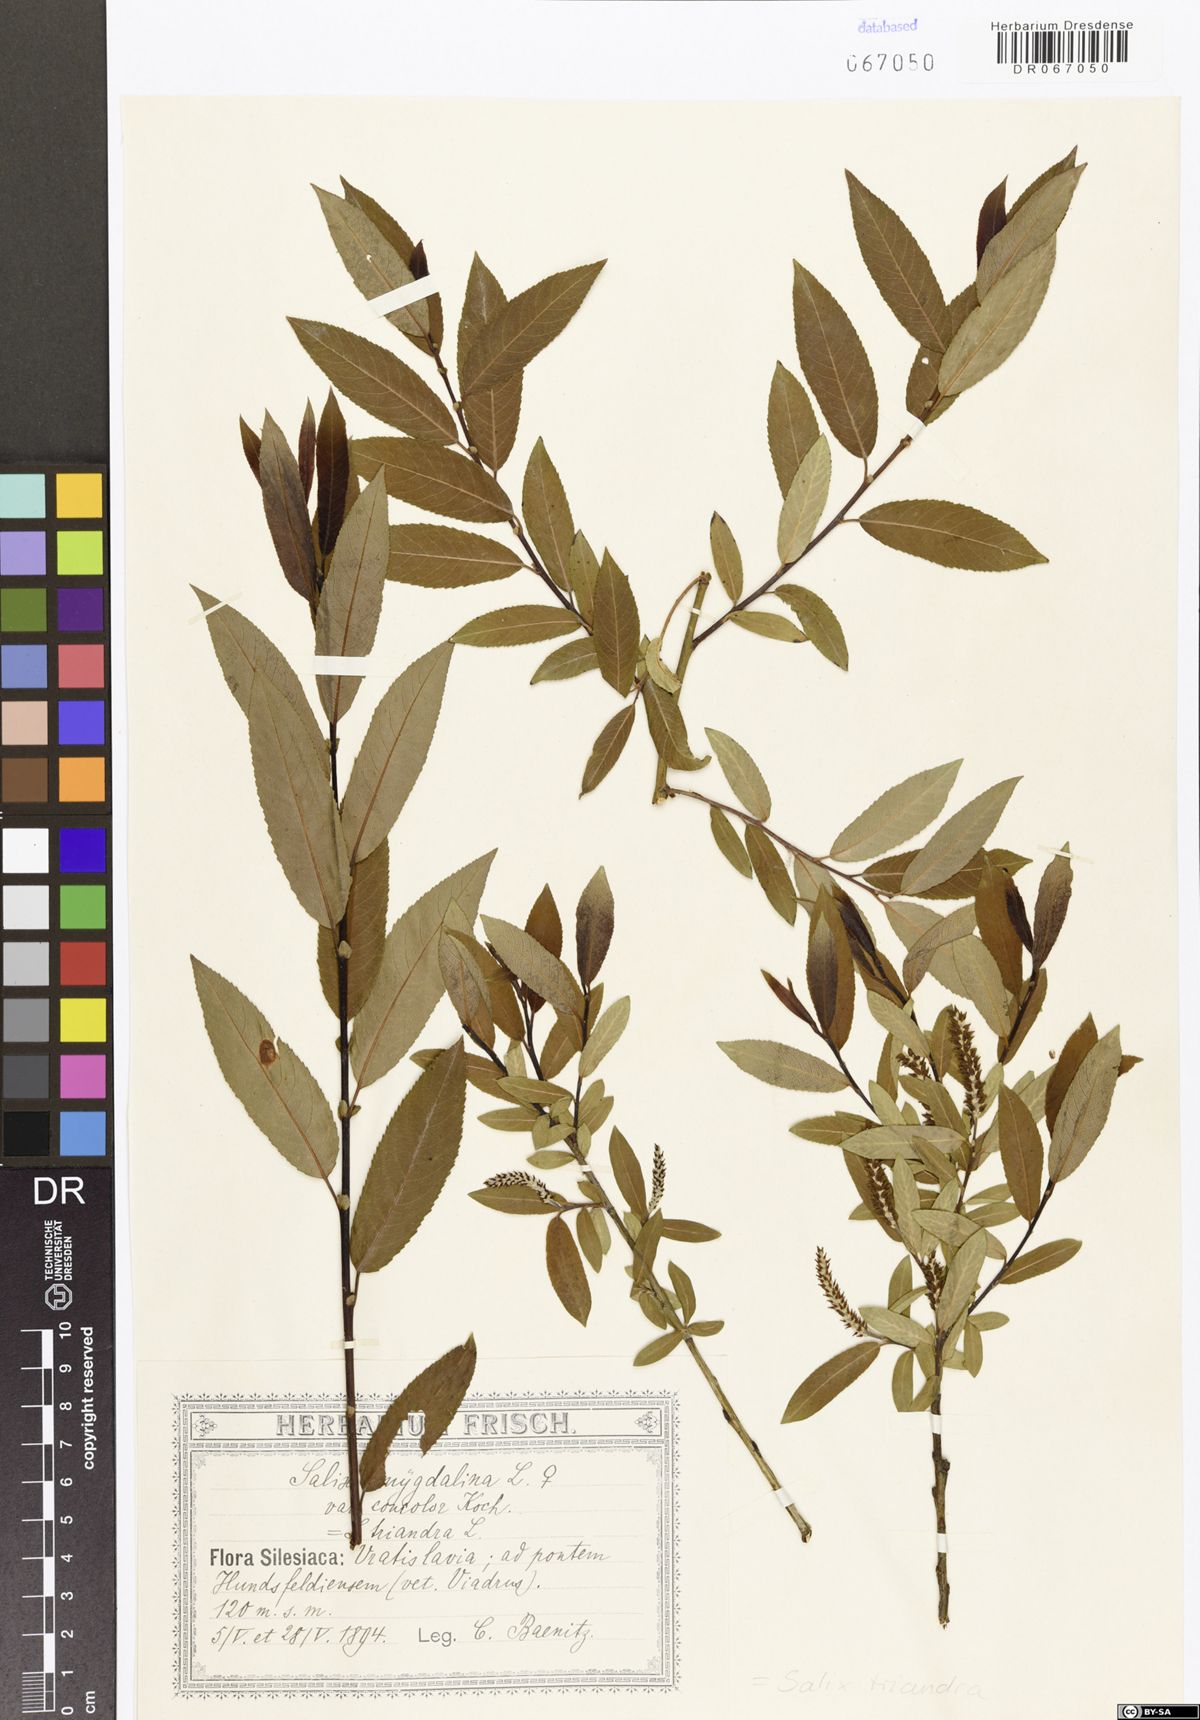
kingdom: Plantae
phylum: Tracheophyta
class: Magnoliopsida
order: Malpighiales
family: Salicaceae
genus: Salix
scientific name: Salix triandra
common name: Almond willow
